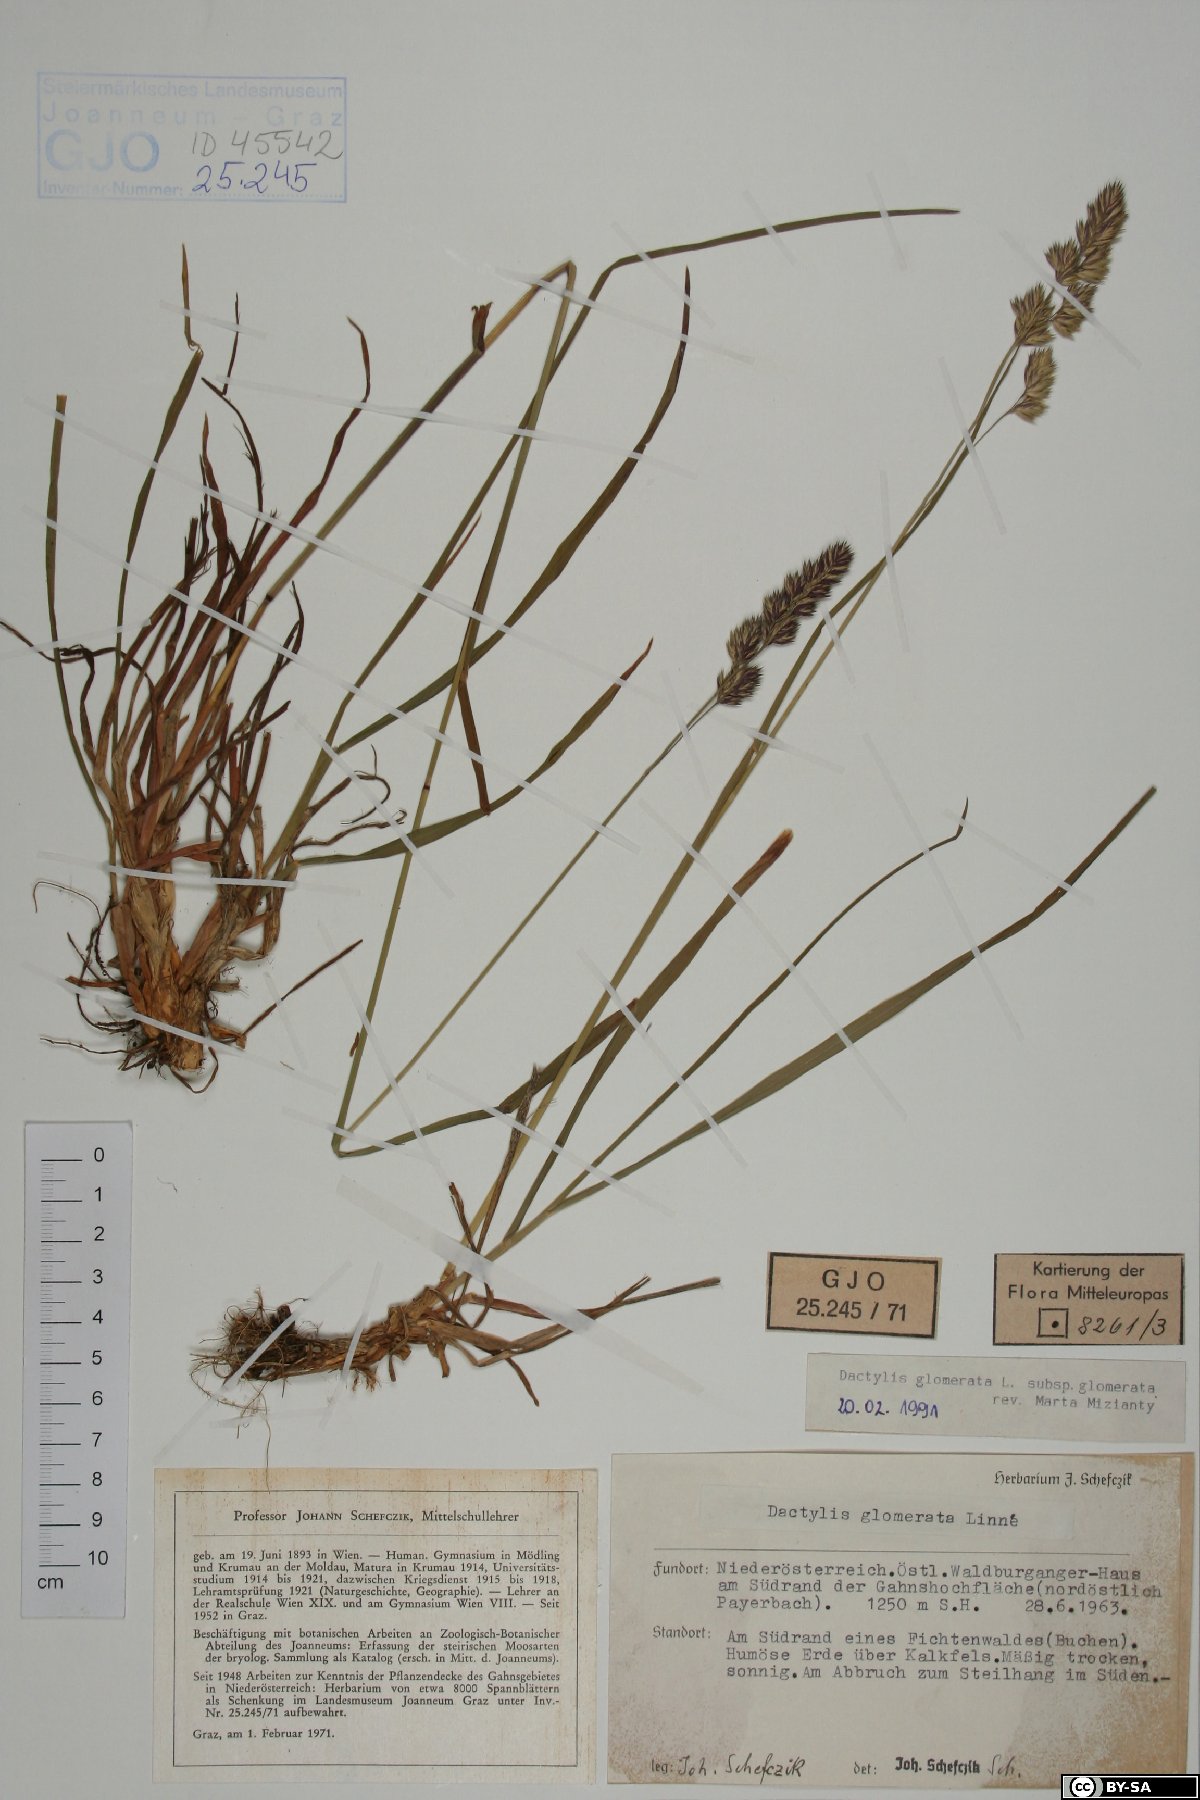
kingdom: Plantae
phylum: Tracheophyta
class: Liliopsida
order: Poales
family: Poaceae
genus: Dactylis
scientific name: Dactylis glomerata
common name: Orchardgrass
